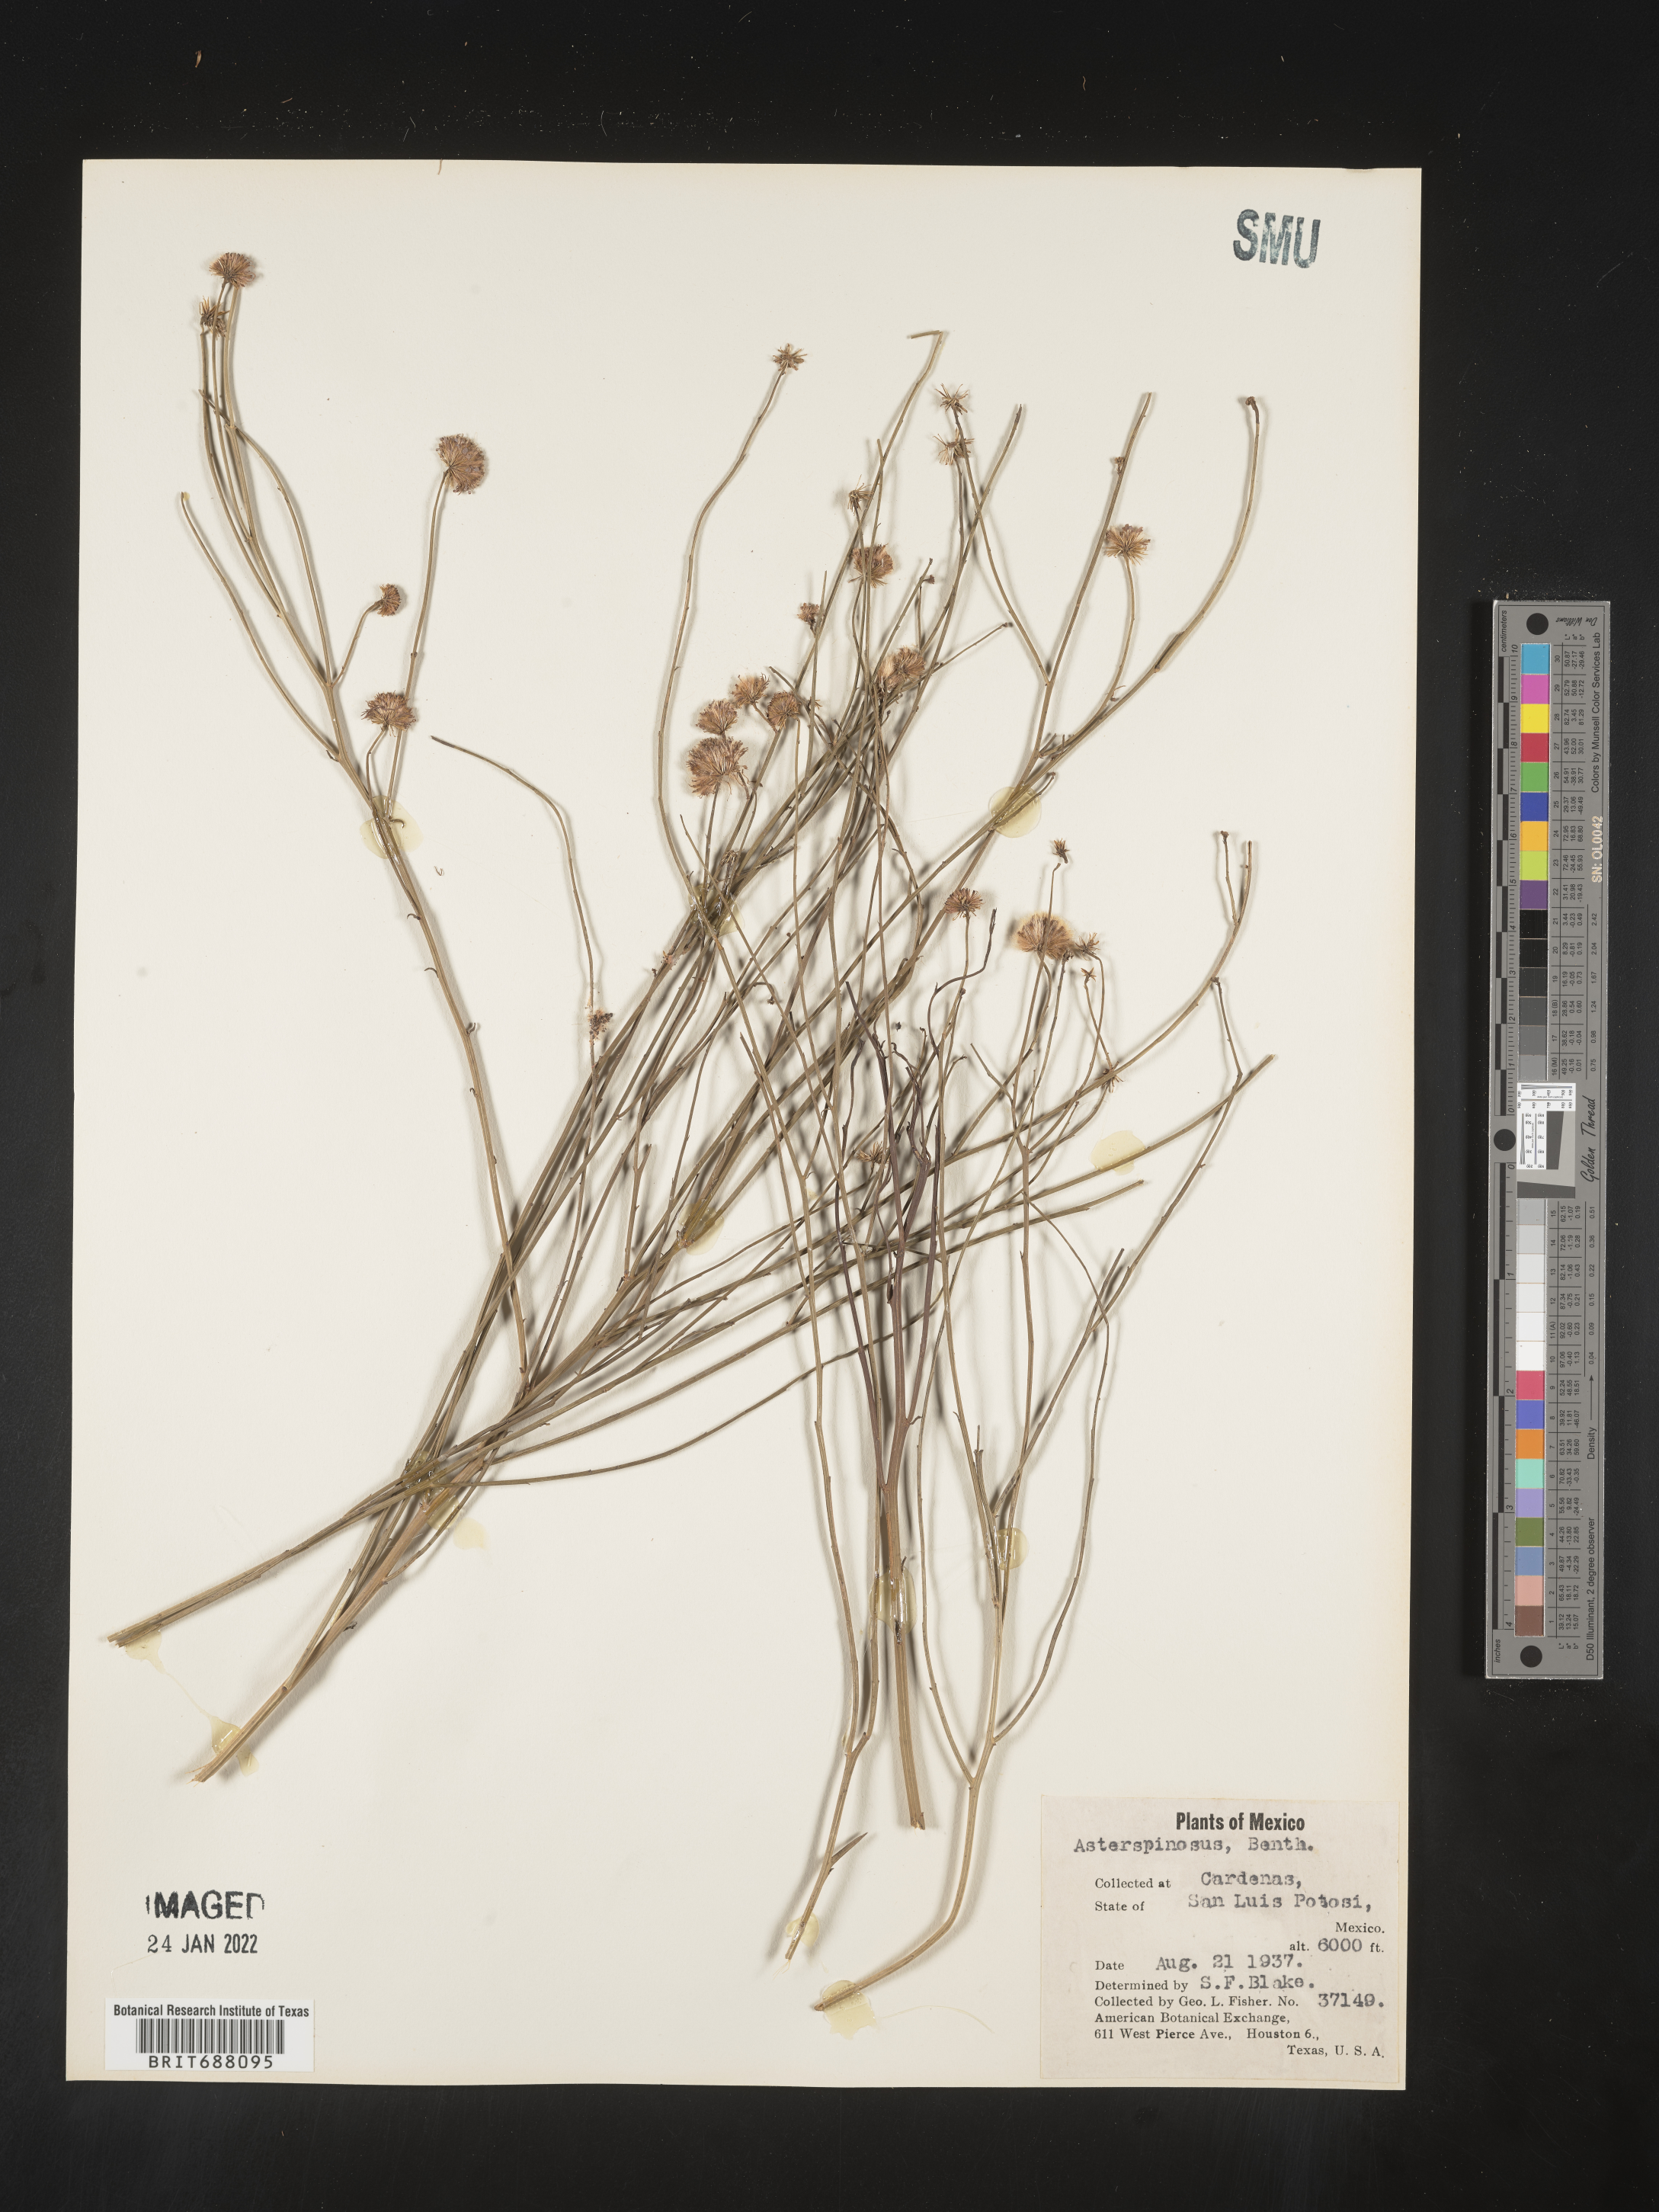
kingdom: Plantae
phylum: Tracheophyta
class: Magnoliopsida
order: Asterales
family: Asteraceae
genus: Chloracantha
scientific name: Chloracantha
